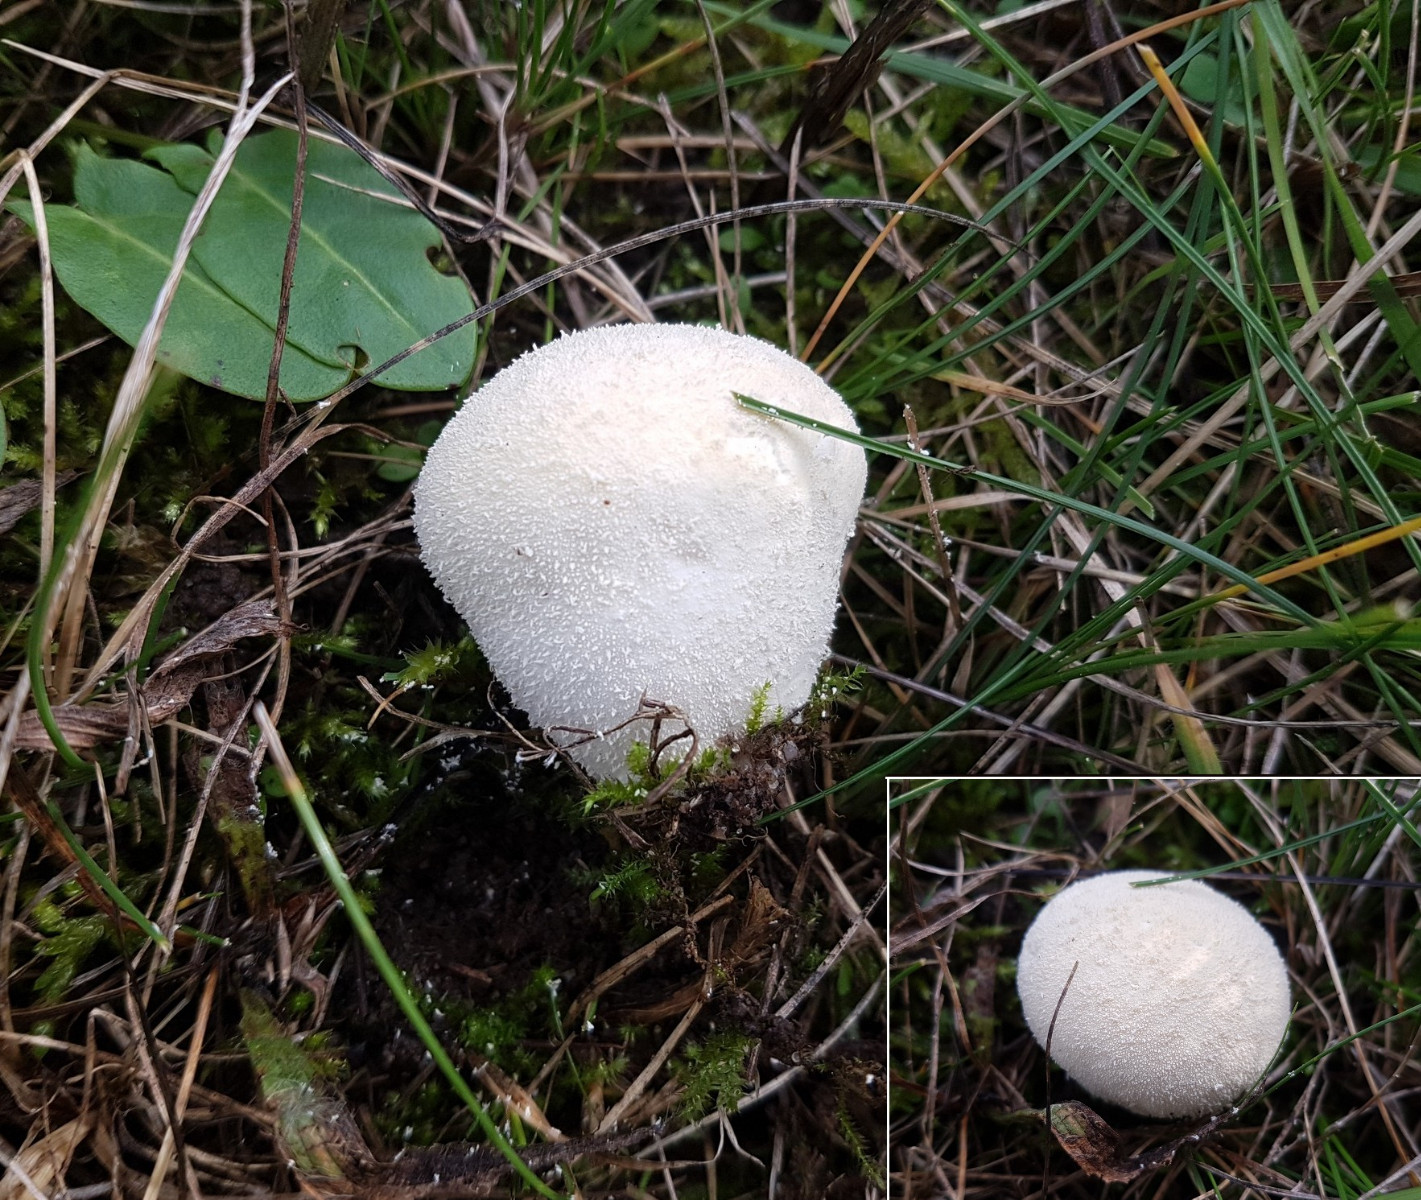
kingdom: Fungi
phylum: Basidiomycota
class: Agaricomycetes
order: Agaricales
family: Lycoperdaceae
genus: Lycoperdon
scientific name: Lycoperdon pratense
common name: flad støvbold
